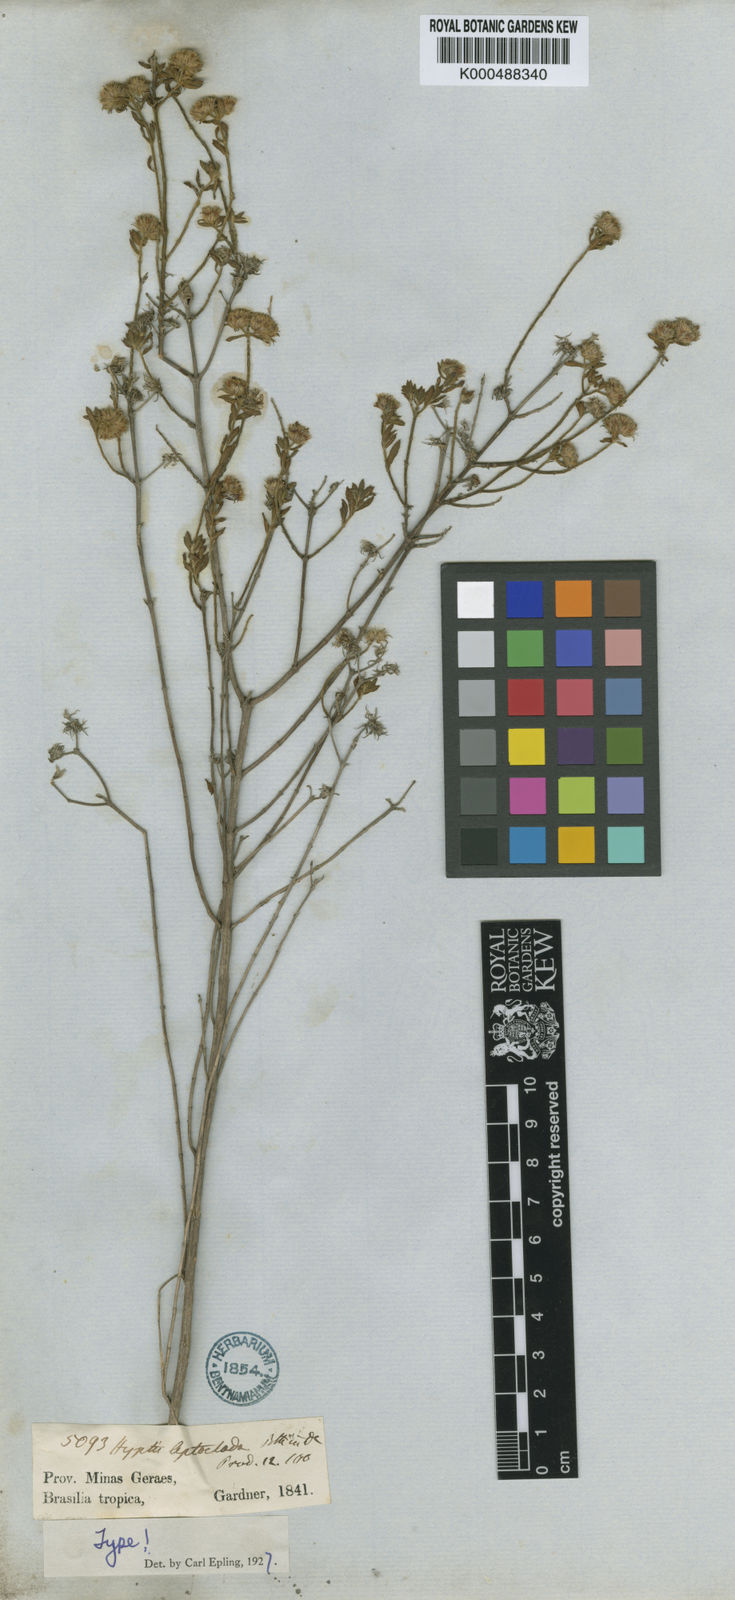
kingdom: Plantae
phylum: Tracheophyta
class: Magnoliopsida
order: Lamiales
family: Lamiaceae
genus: Hyptis
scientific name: Hyptis leptoclada
